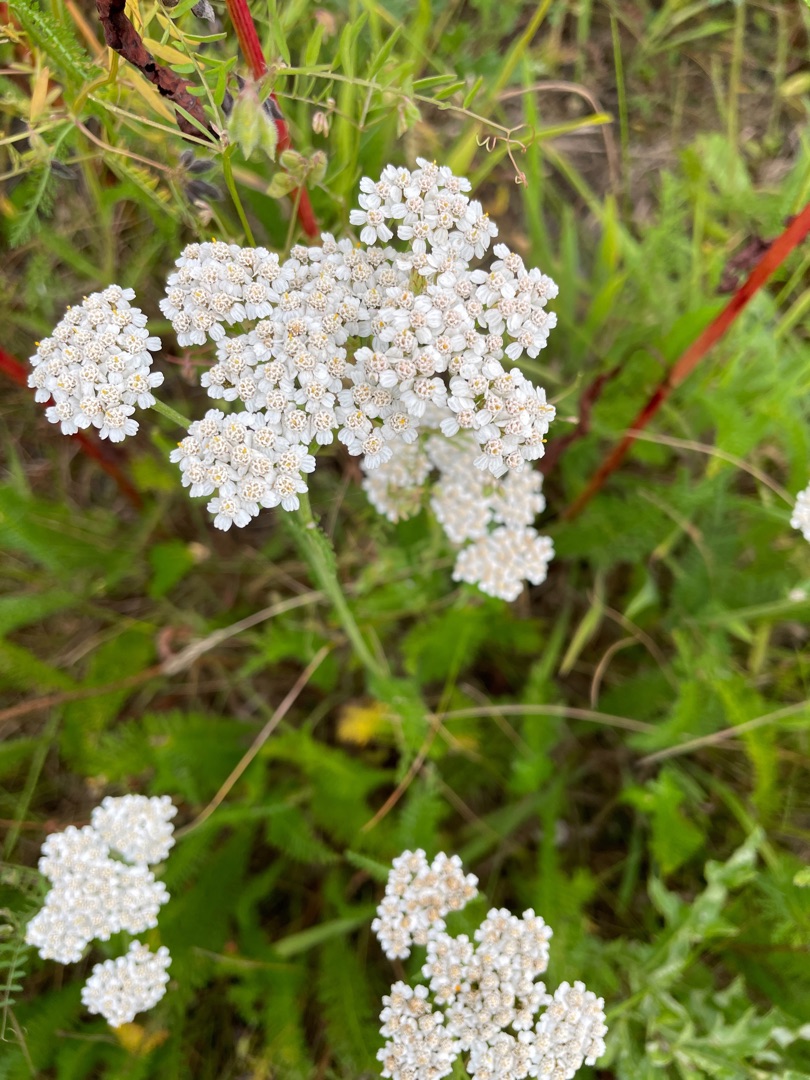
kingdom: Plantae
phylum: Tracheophyta
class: Magnoliopsida
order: Asterales
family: Asteraceae
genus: Achillea
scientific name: Achillea millefolium
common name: Almindelig røllike
